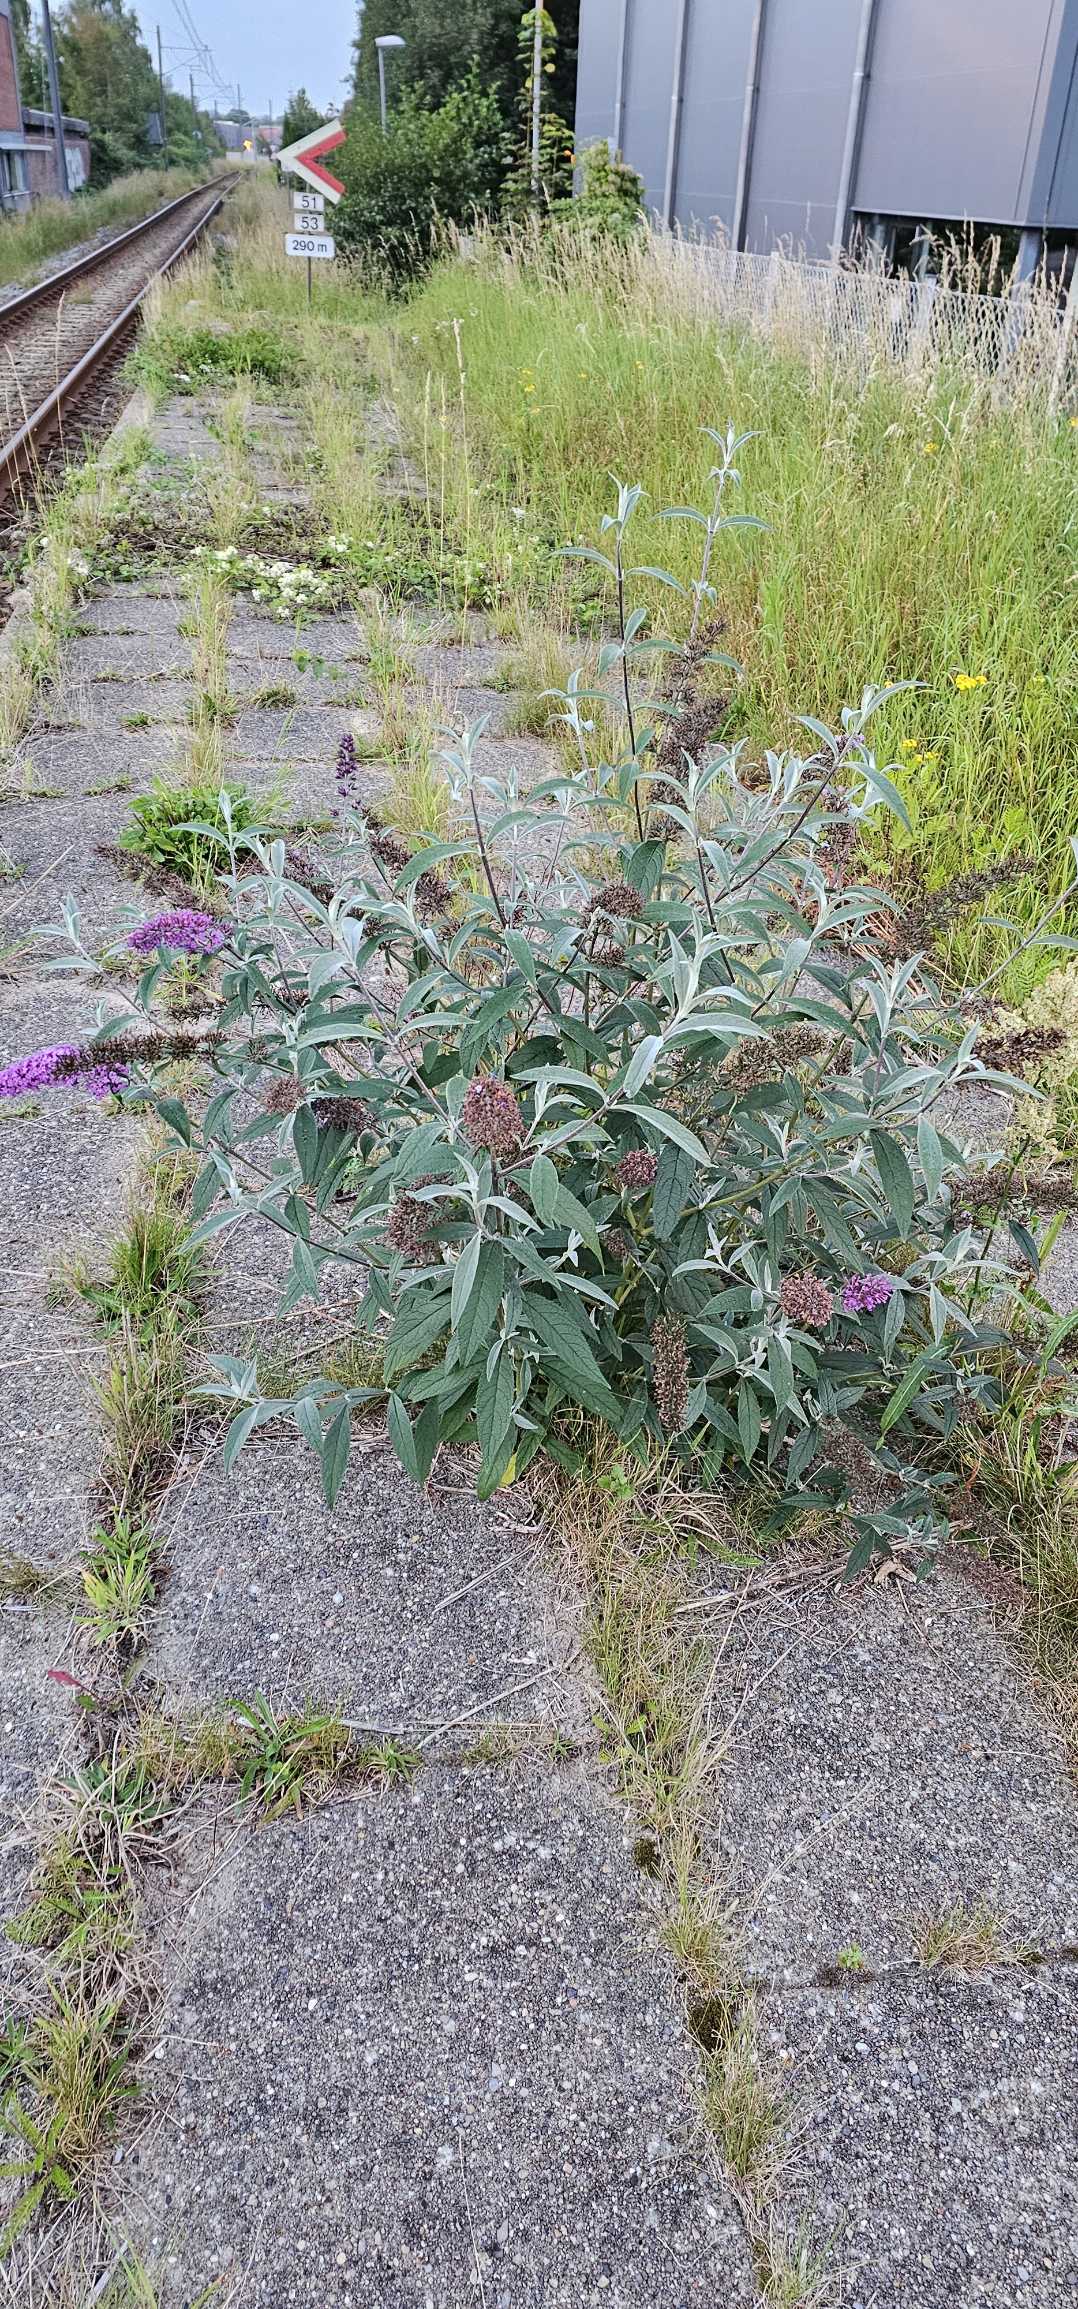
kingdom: Plantae
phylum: Tracheophyta
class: Magnoliopsida
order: Lamiales
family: Scrophulariaceae
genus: Buddleja
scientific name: Buddleja davidii
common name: Sommerfuglebusk
